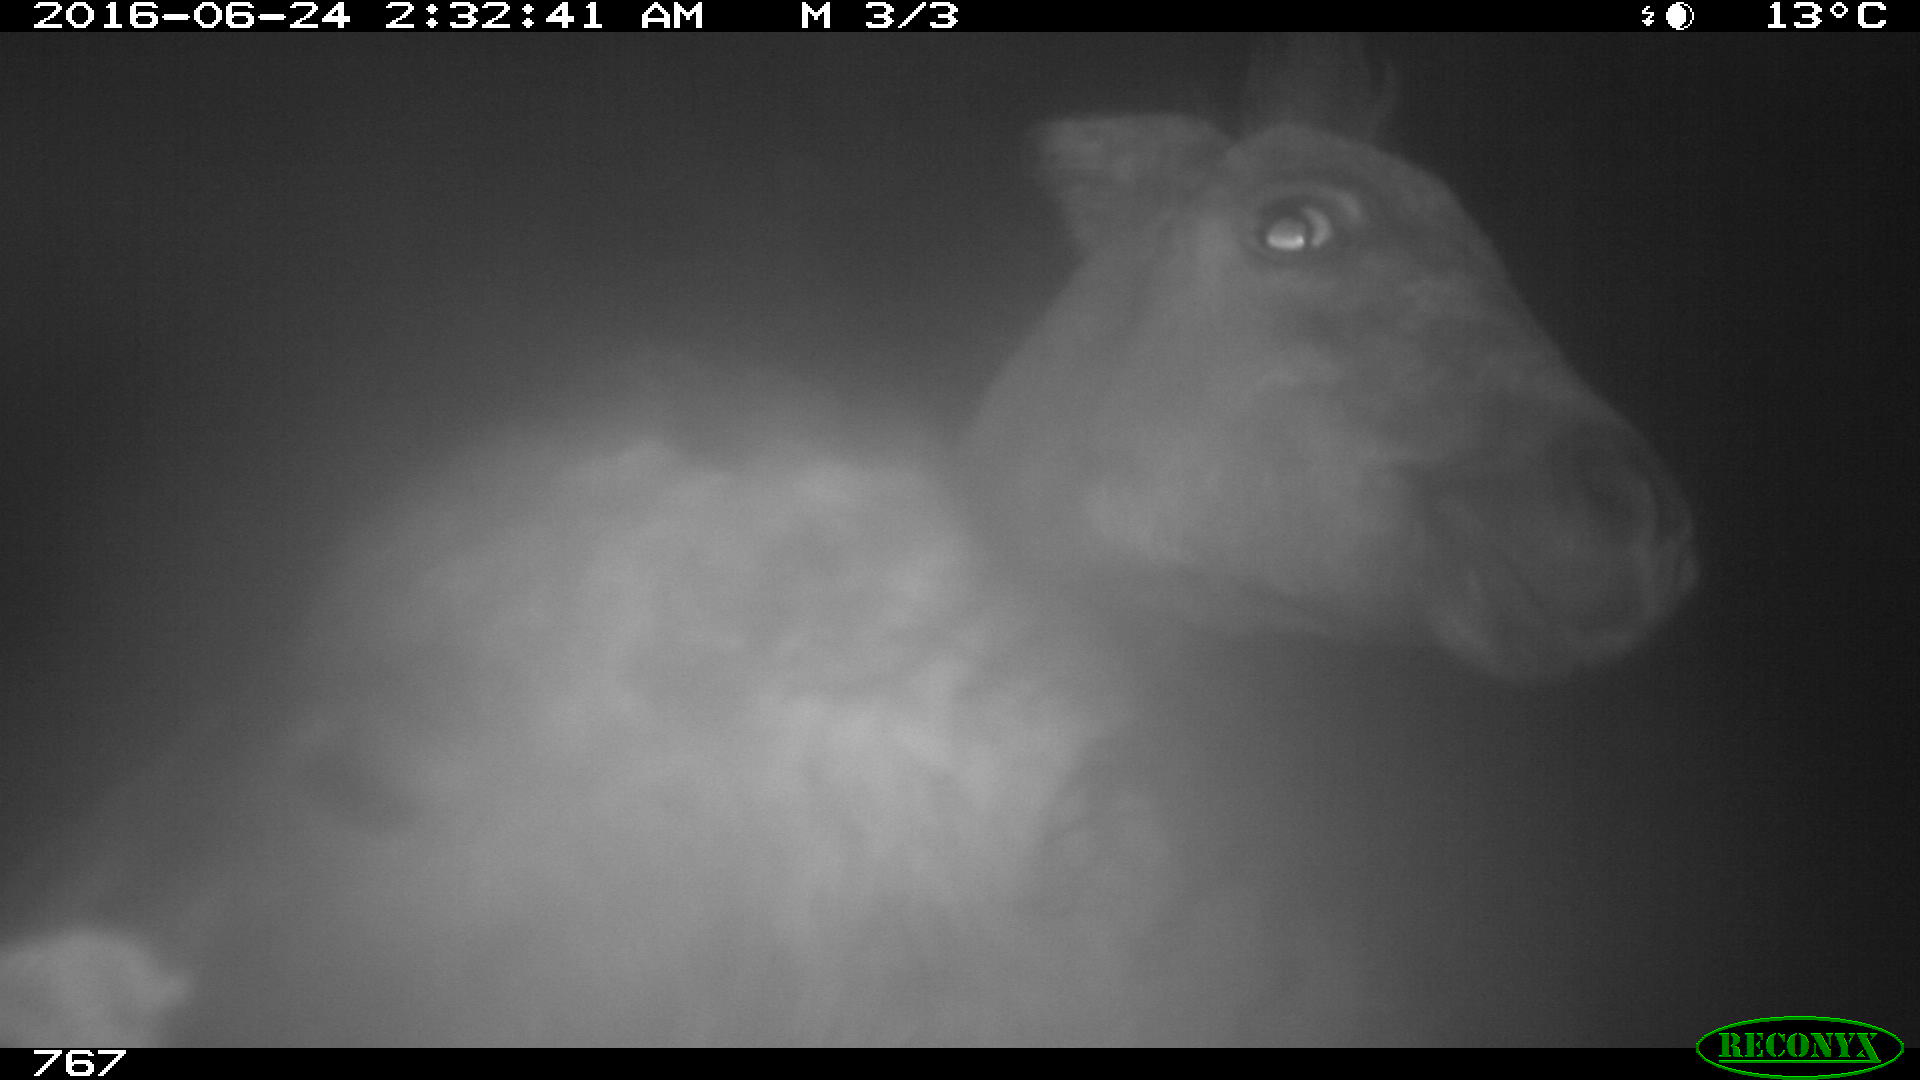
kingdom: Animalia
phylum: Chordata
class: Mammalia
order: Perissodactyla
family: Equidae
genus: Equus
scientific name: Equus caballus
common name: Horse
